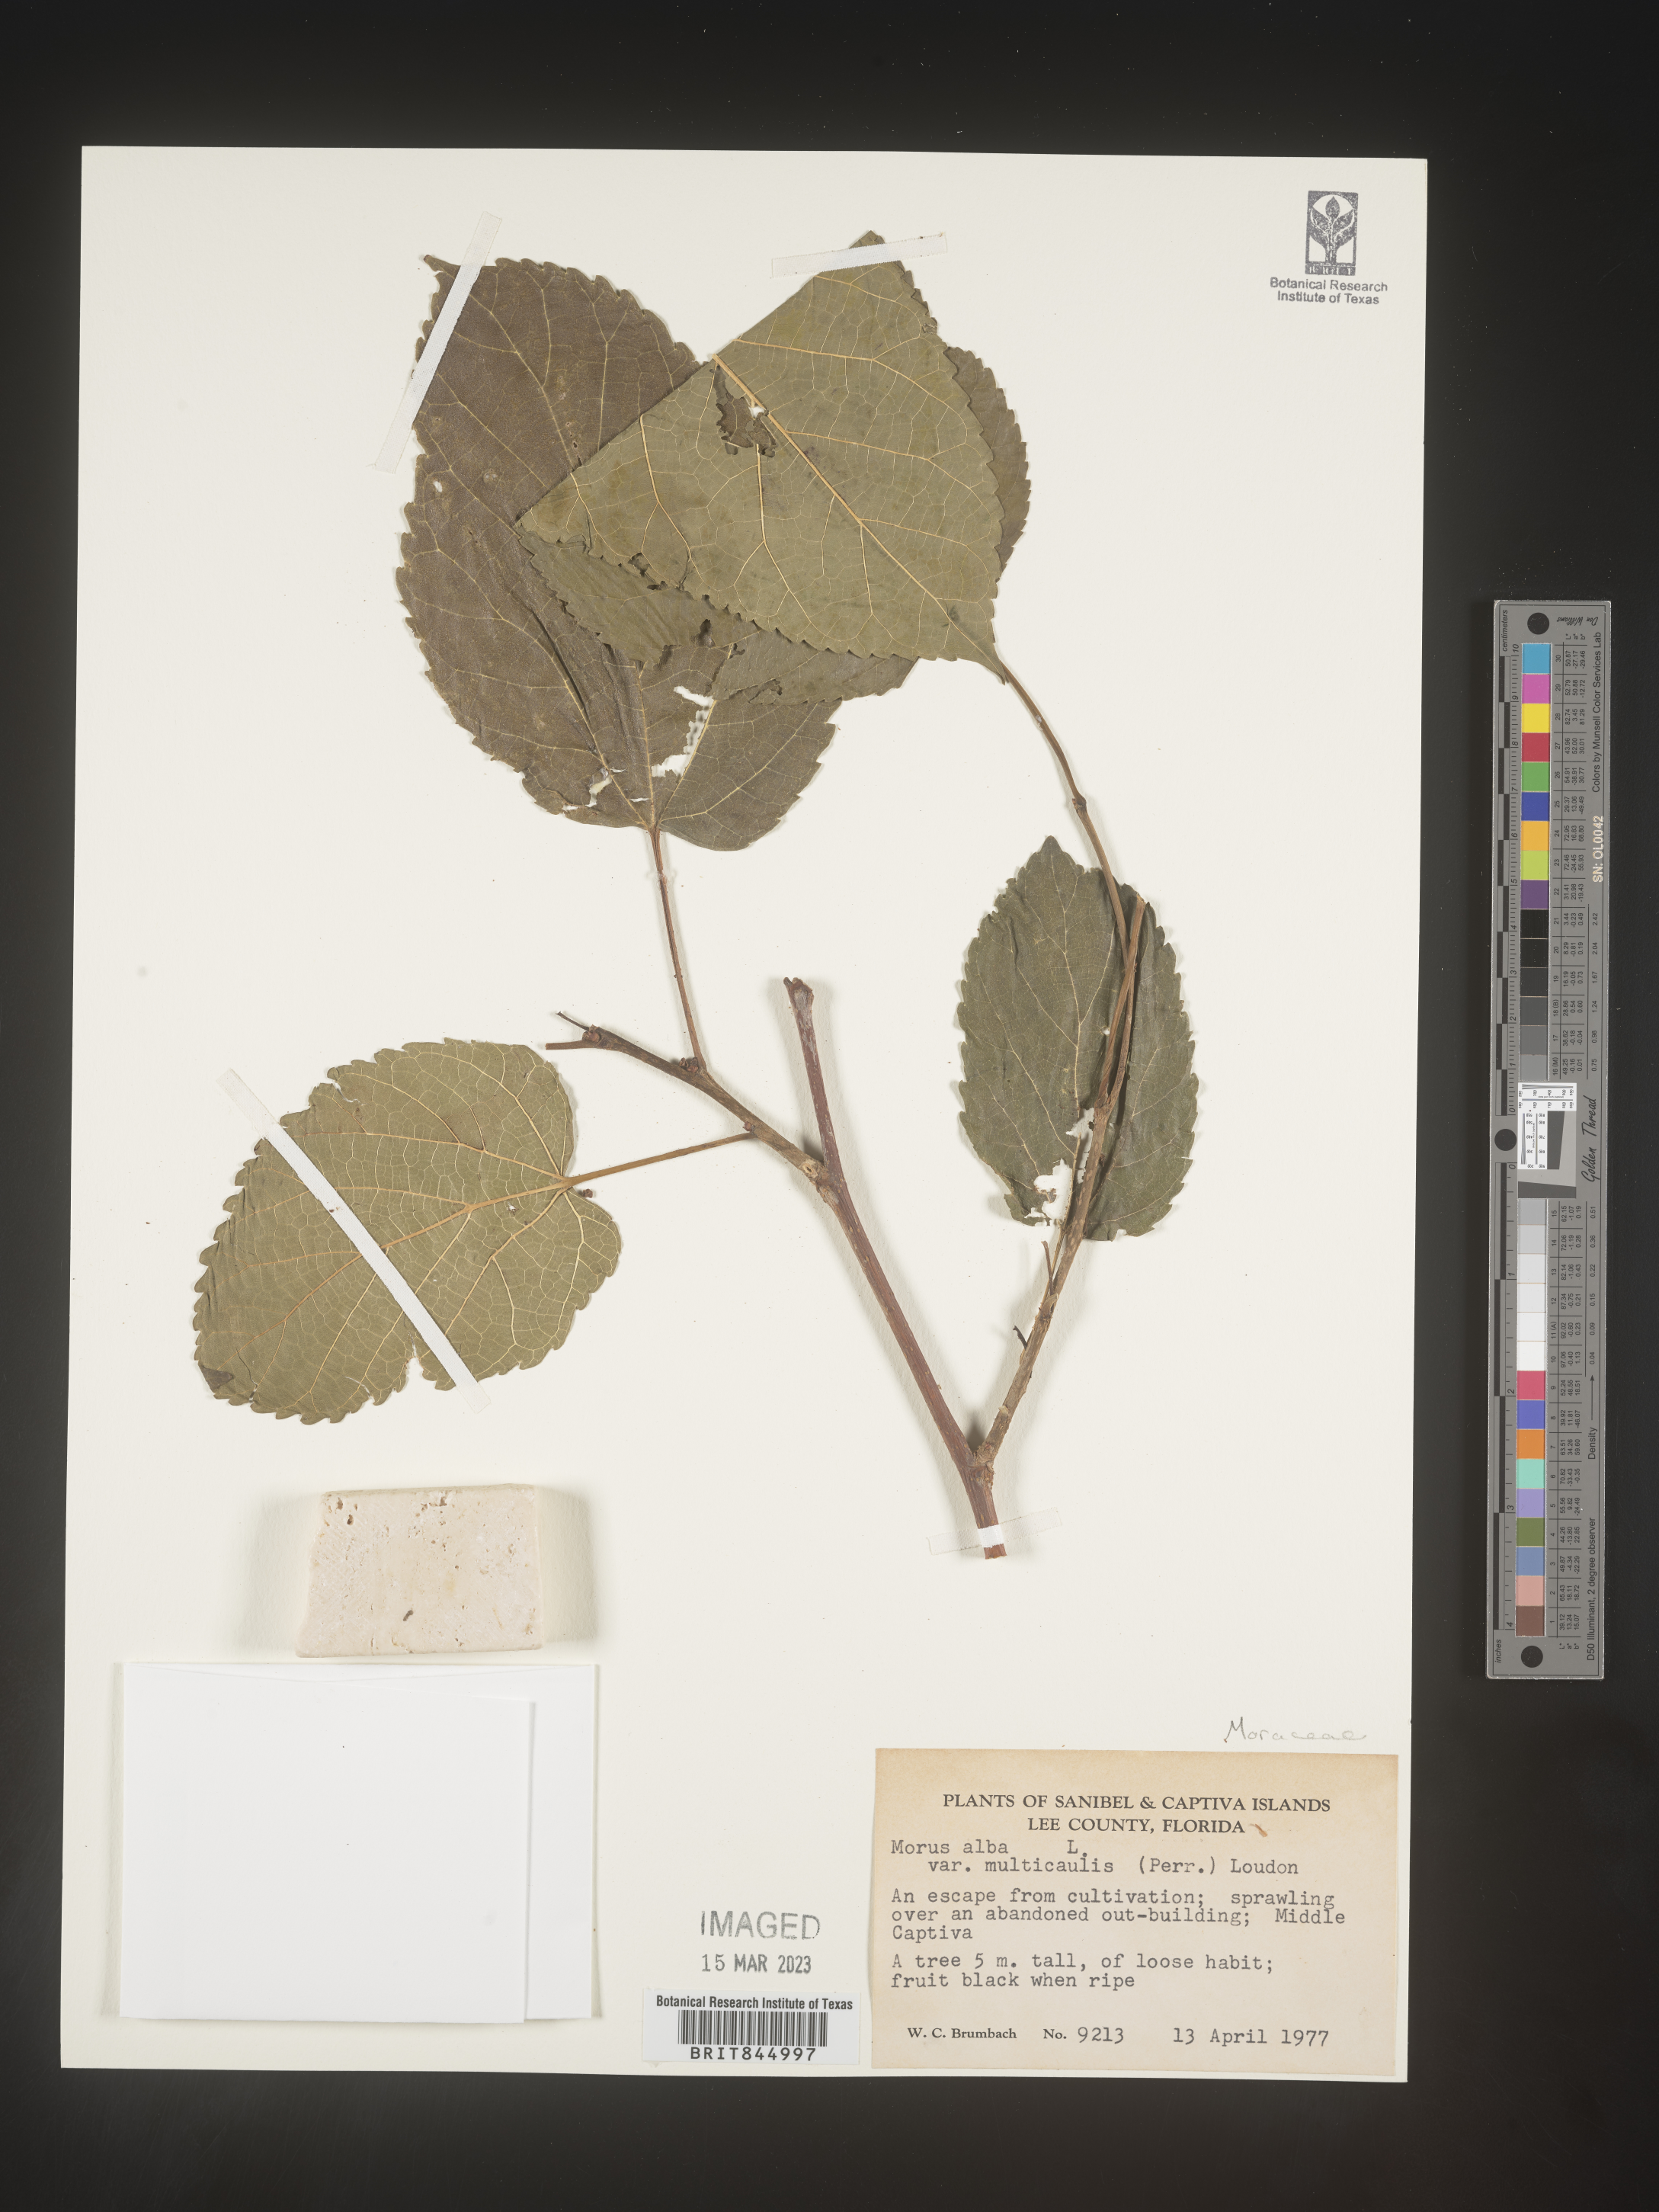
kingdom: Plantae
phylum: Tracheophyta
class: Magnoliopsida
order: Rosales
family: Moraceae
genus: Morus
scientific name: Morus alba
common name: White mulberry
